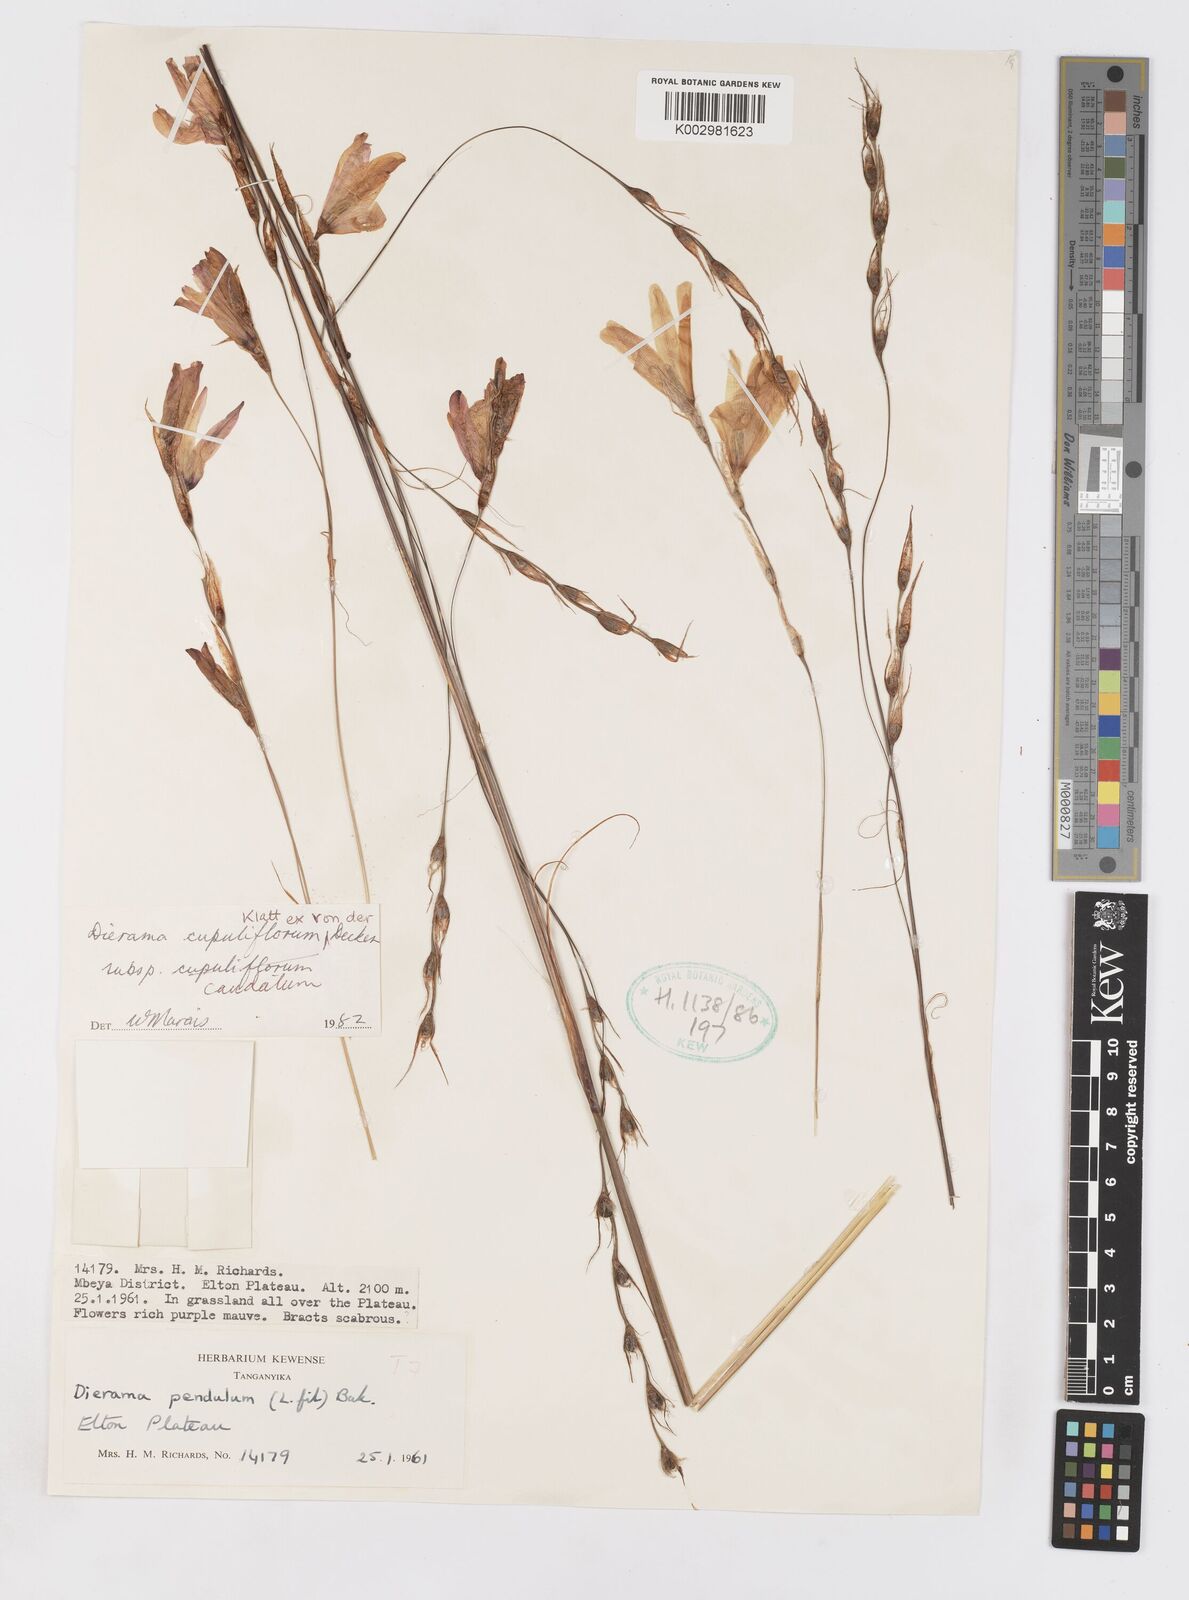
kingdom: Plantae
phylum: Tracheophyta
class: Liliopsida
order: Asparagales
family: Iridaceae
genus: Dierama
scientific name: Dierama cupuliflorum
